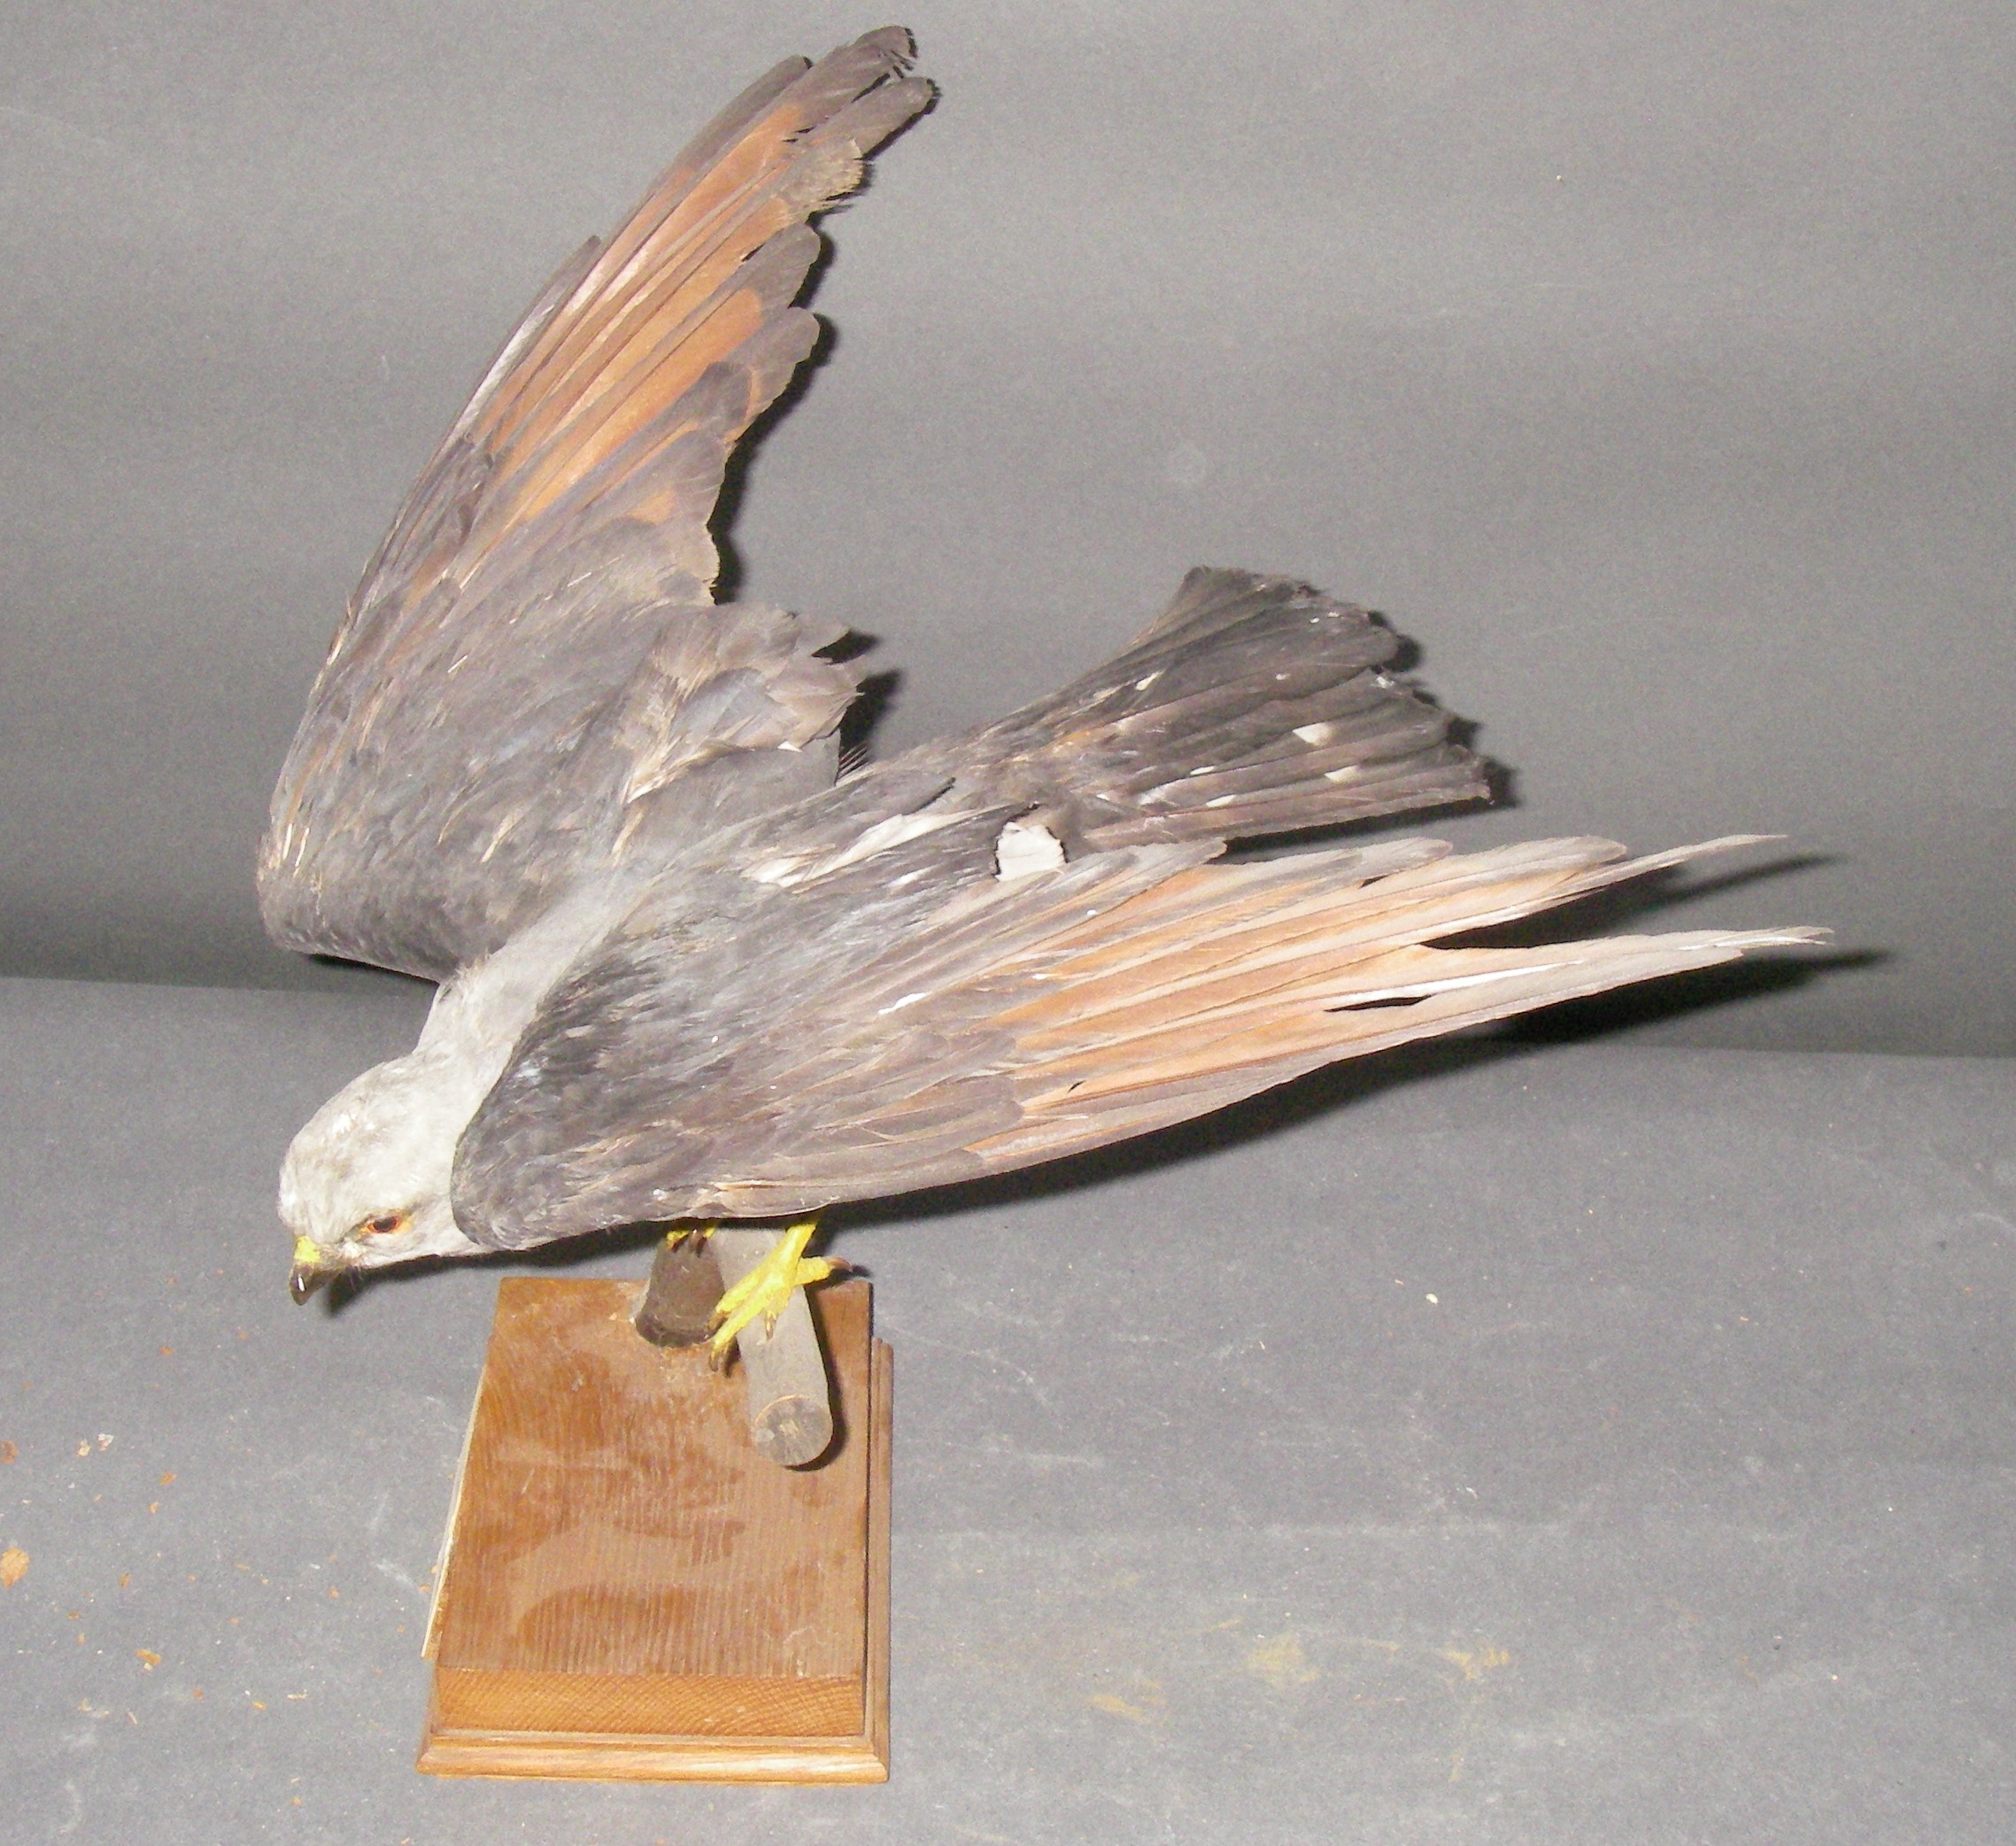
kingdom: Animalia
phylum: Chordata
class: Aves
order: Accipitriformes
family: Accipitridae
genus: Ictinia
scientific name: Ictinia plumbea
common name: Plumbeous kite
